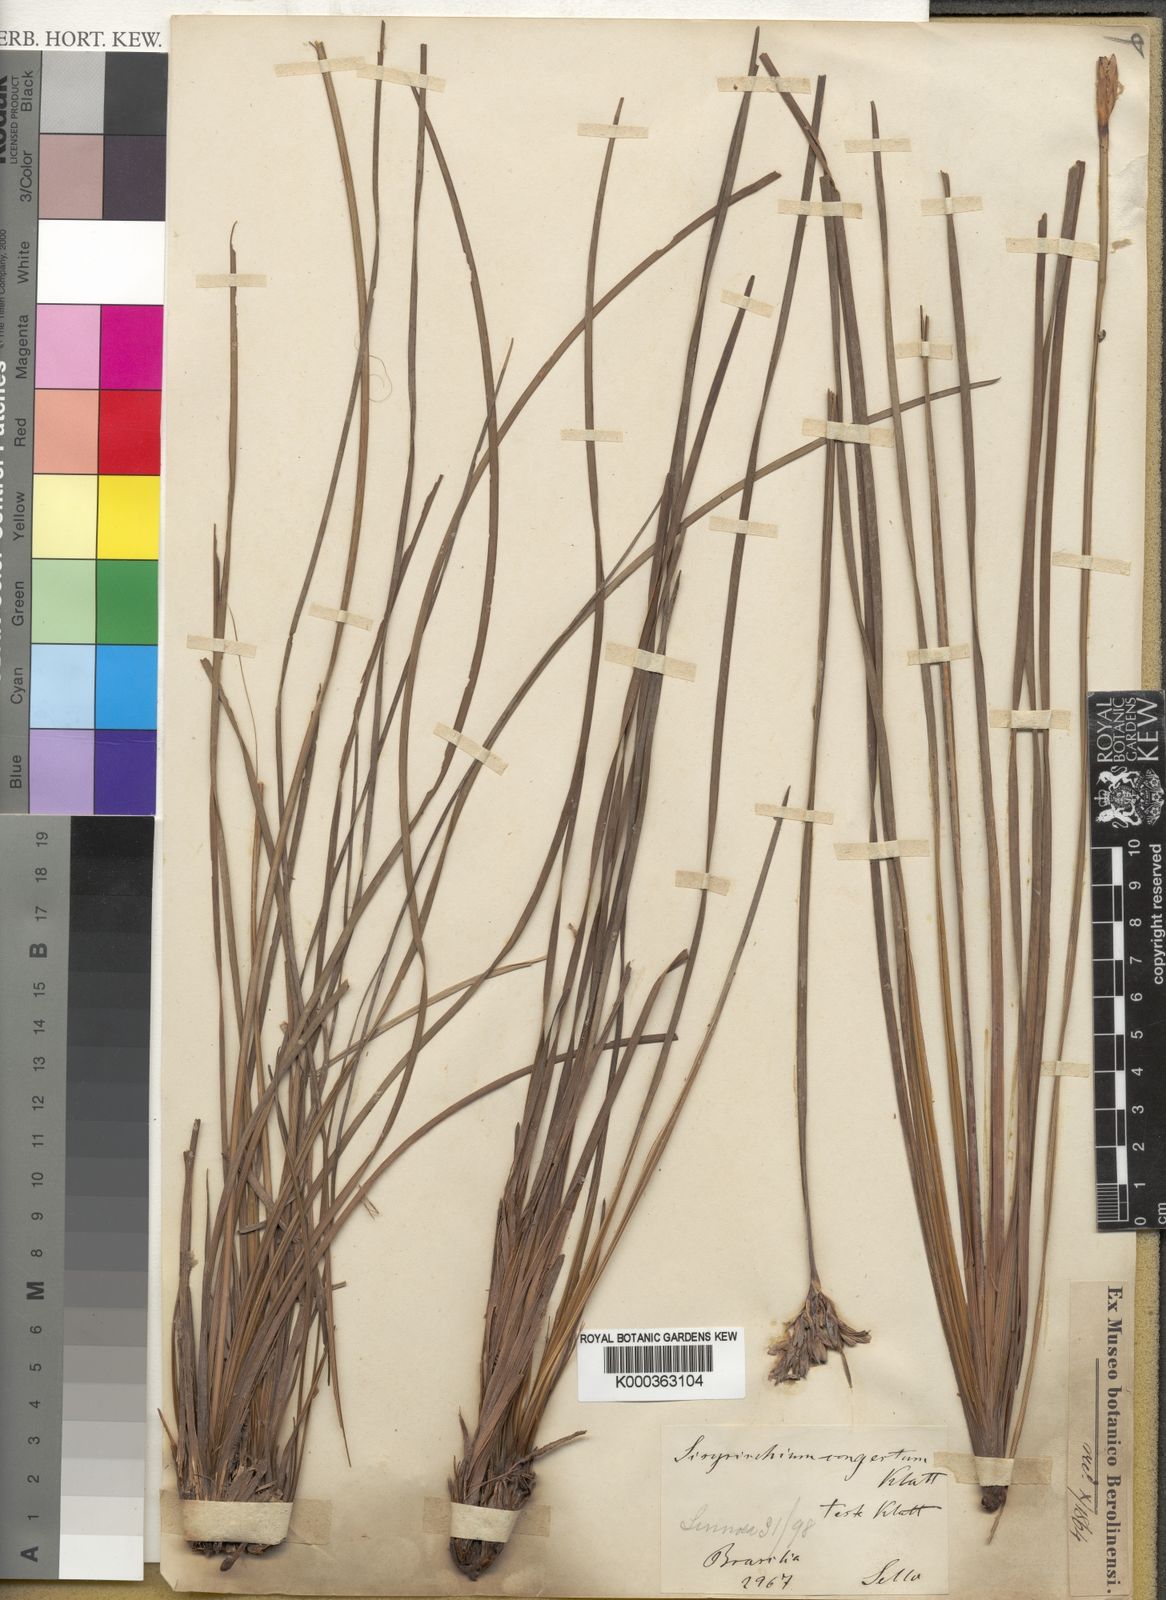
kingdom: Plantae
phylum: Tracheophyta
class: Liliopsida
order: Asparagales
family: Iridaceae
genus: Eleutherine
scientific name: Eleutherine bulbosa
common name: Lagrimas de la virgen
